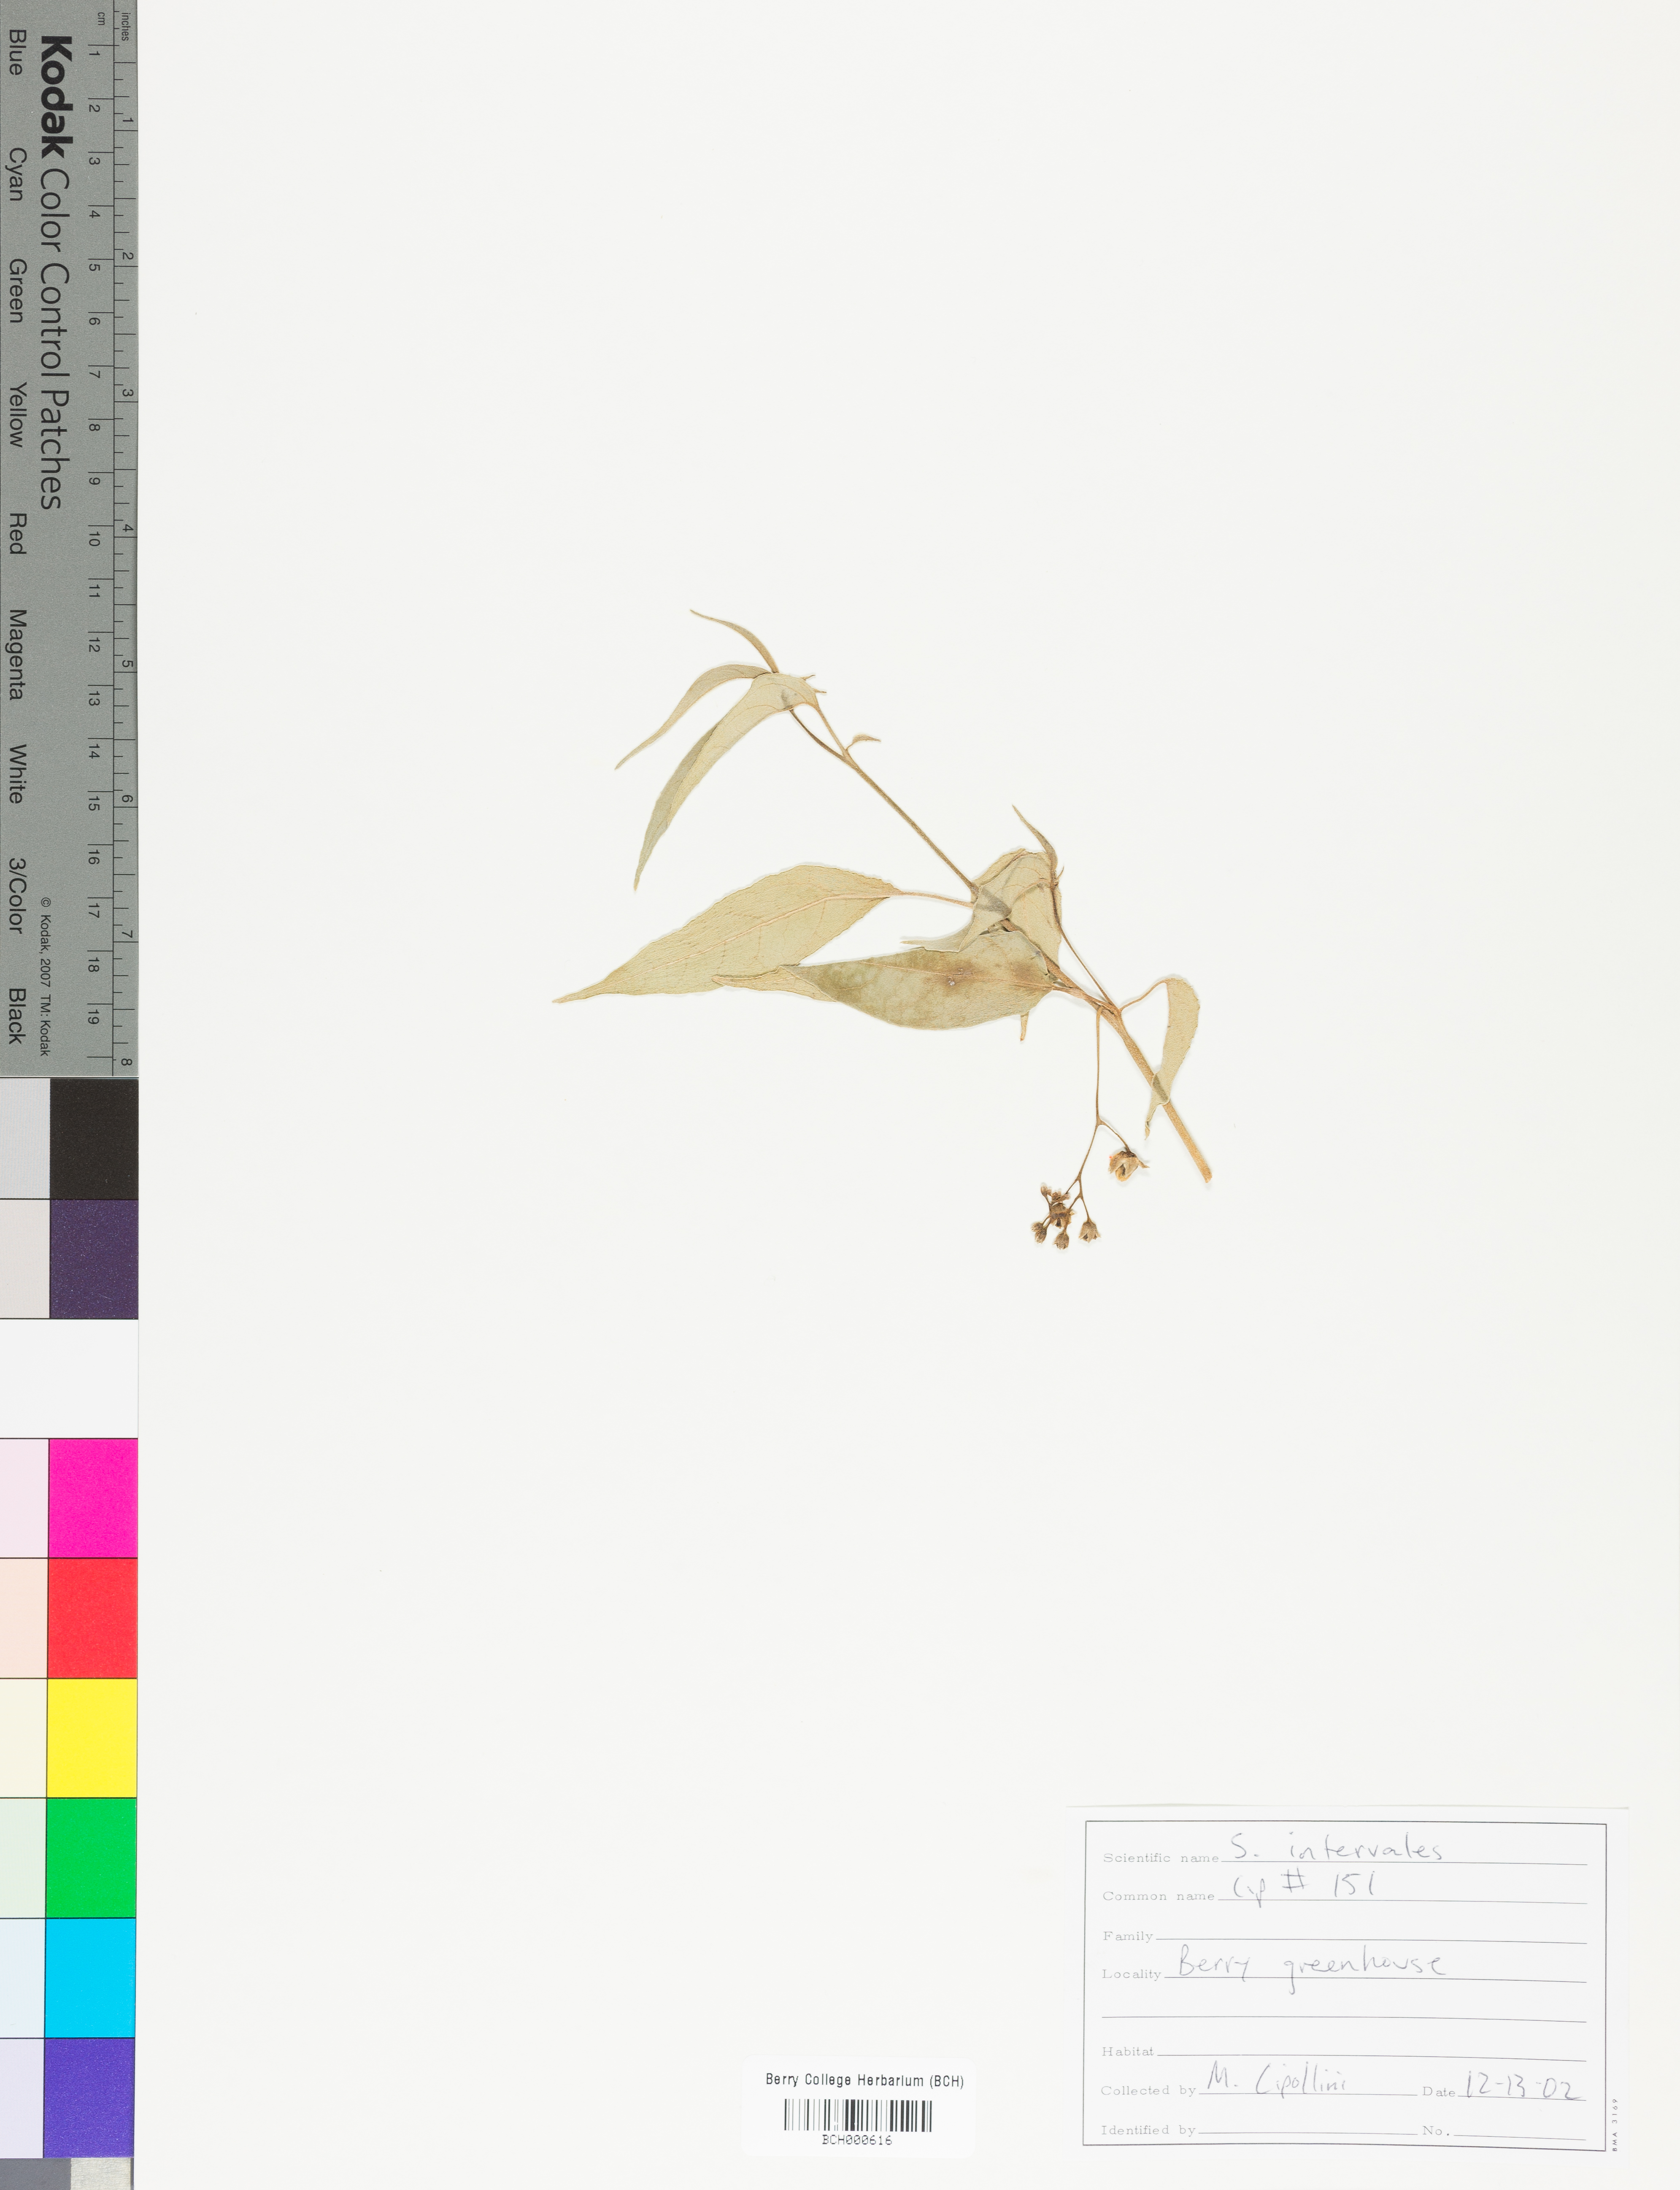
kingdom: Plantae
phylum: Tracheophyta
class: Magnoliopsida
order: Solanales
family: Solanaceae
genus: Solanum
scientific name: Solanum
